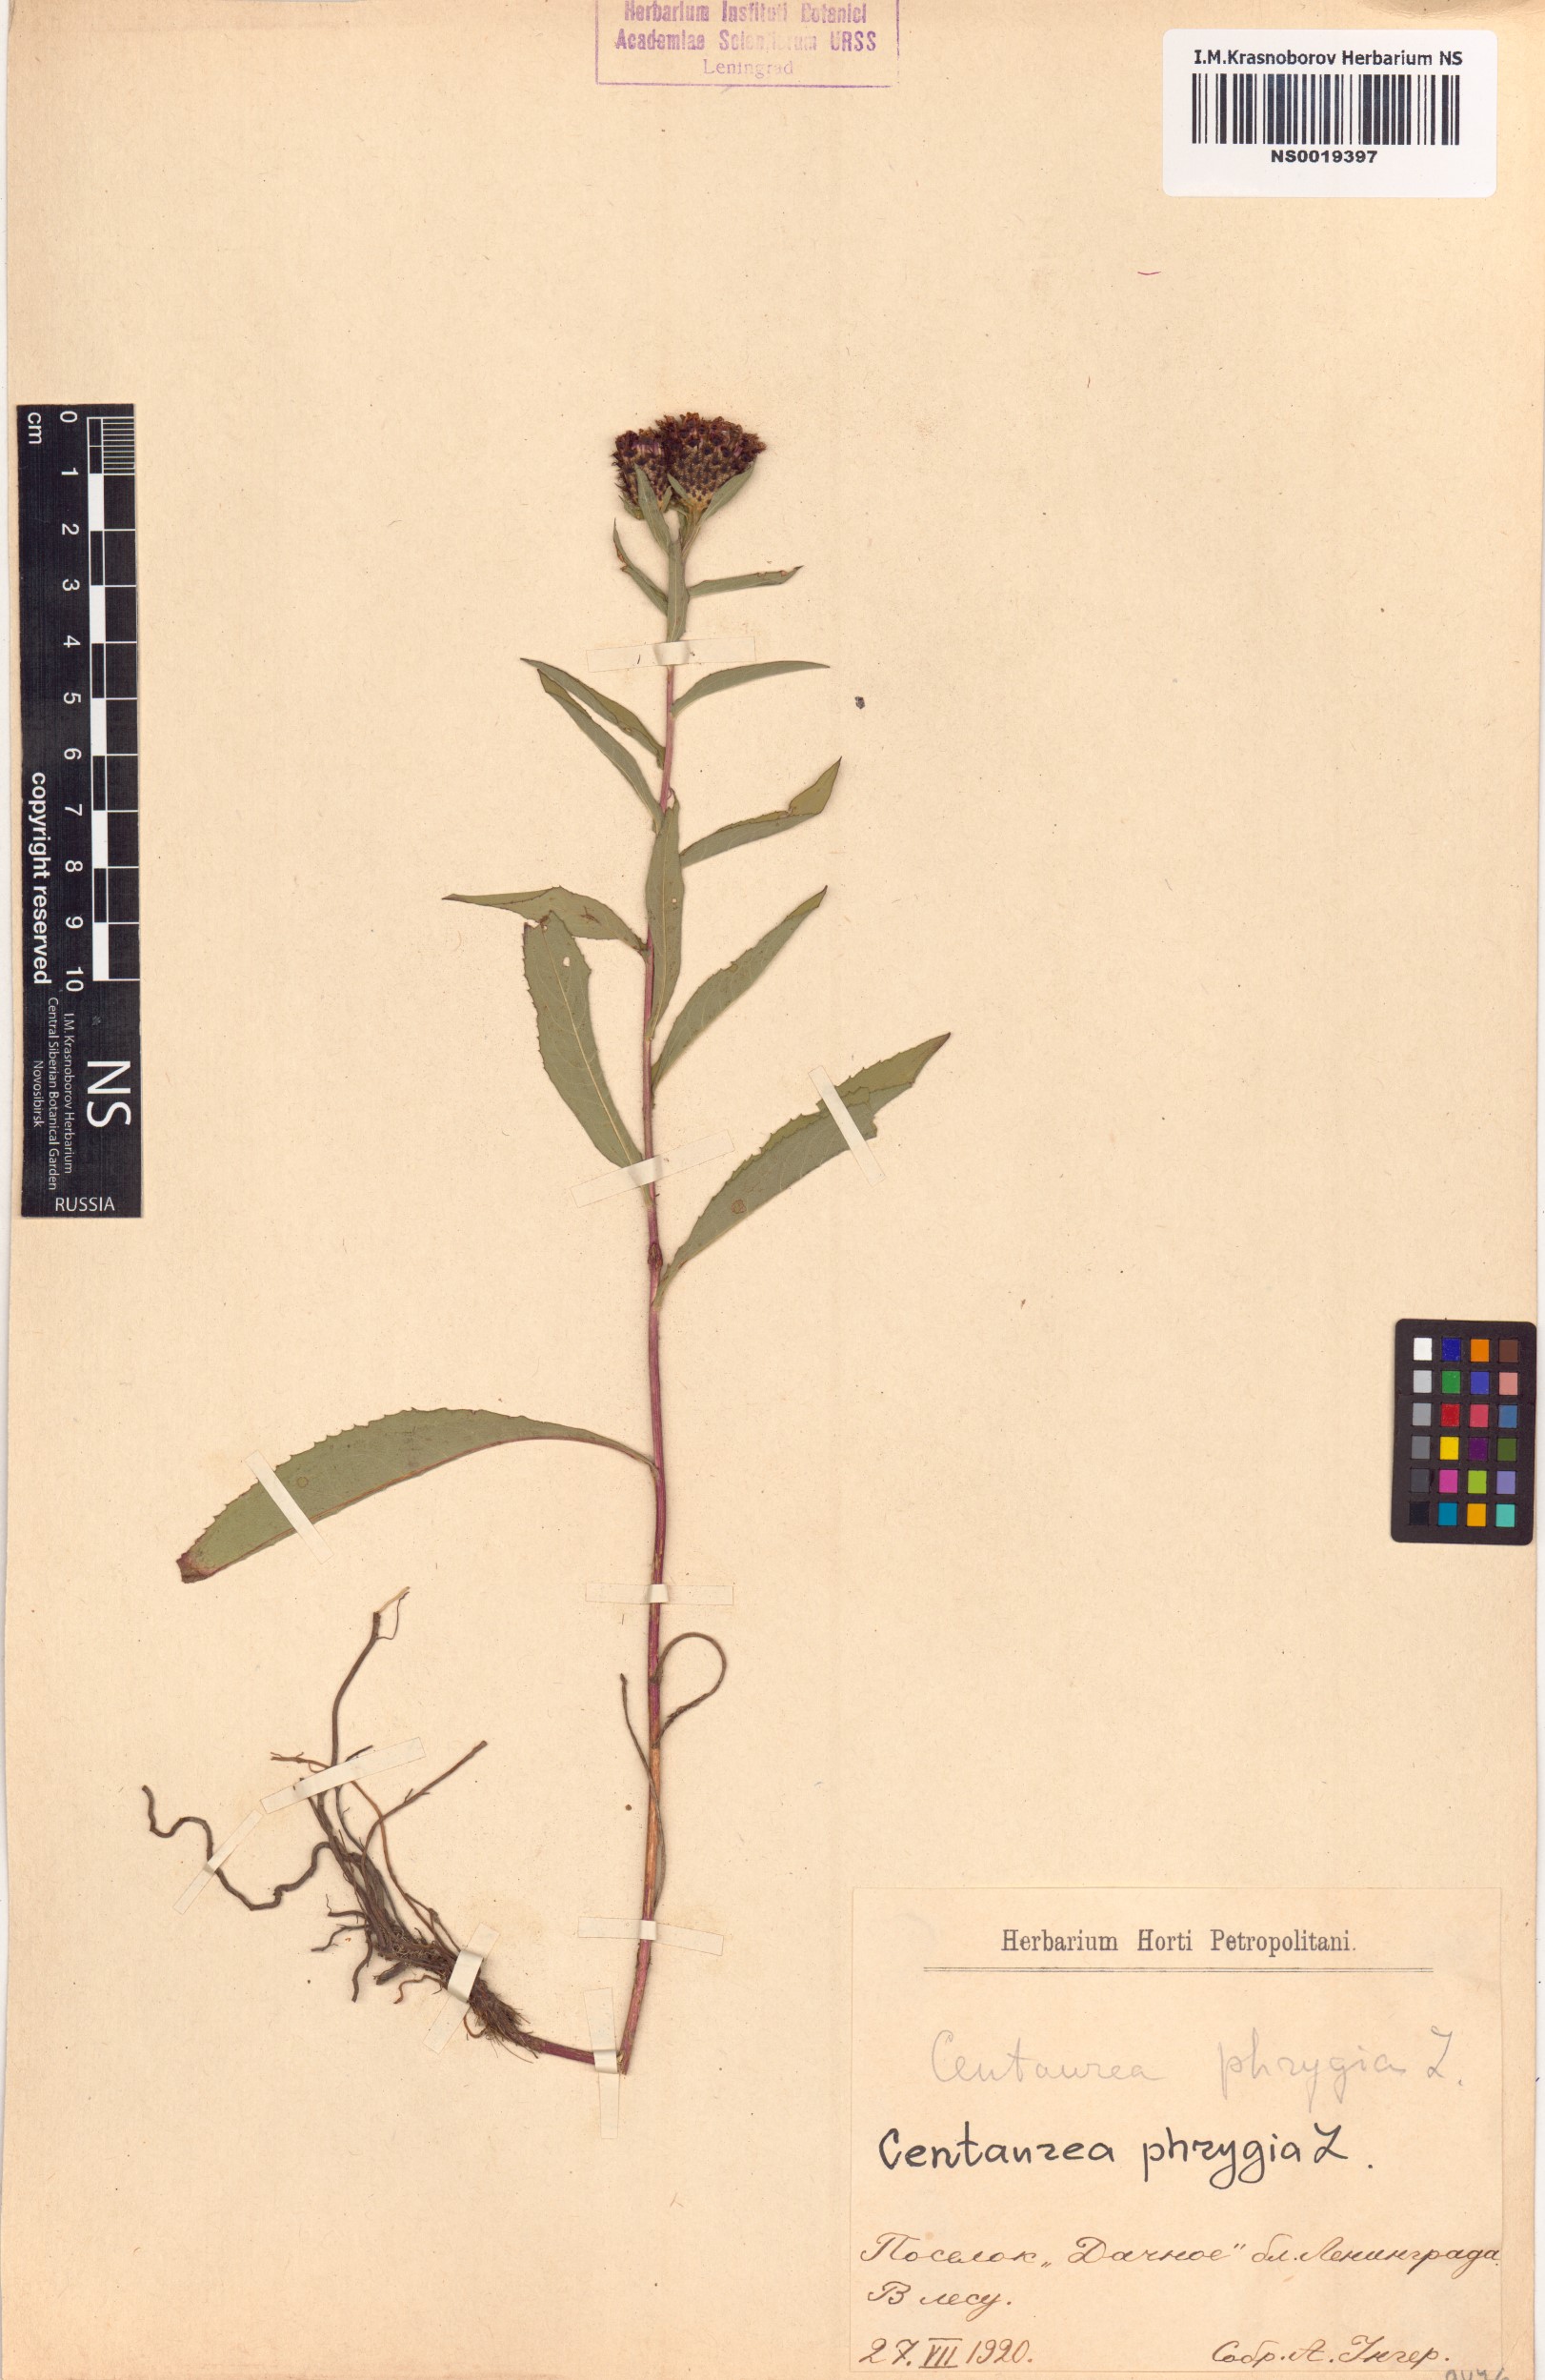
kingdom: Plantae
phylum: Tracheophyta
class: Magnoliopsida
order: Asterales
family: Asteraceae
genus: Centaurea
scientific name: Centaurea phrygia
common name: Wig knapweed
